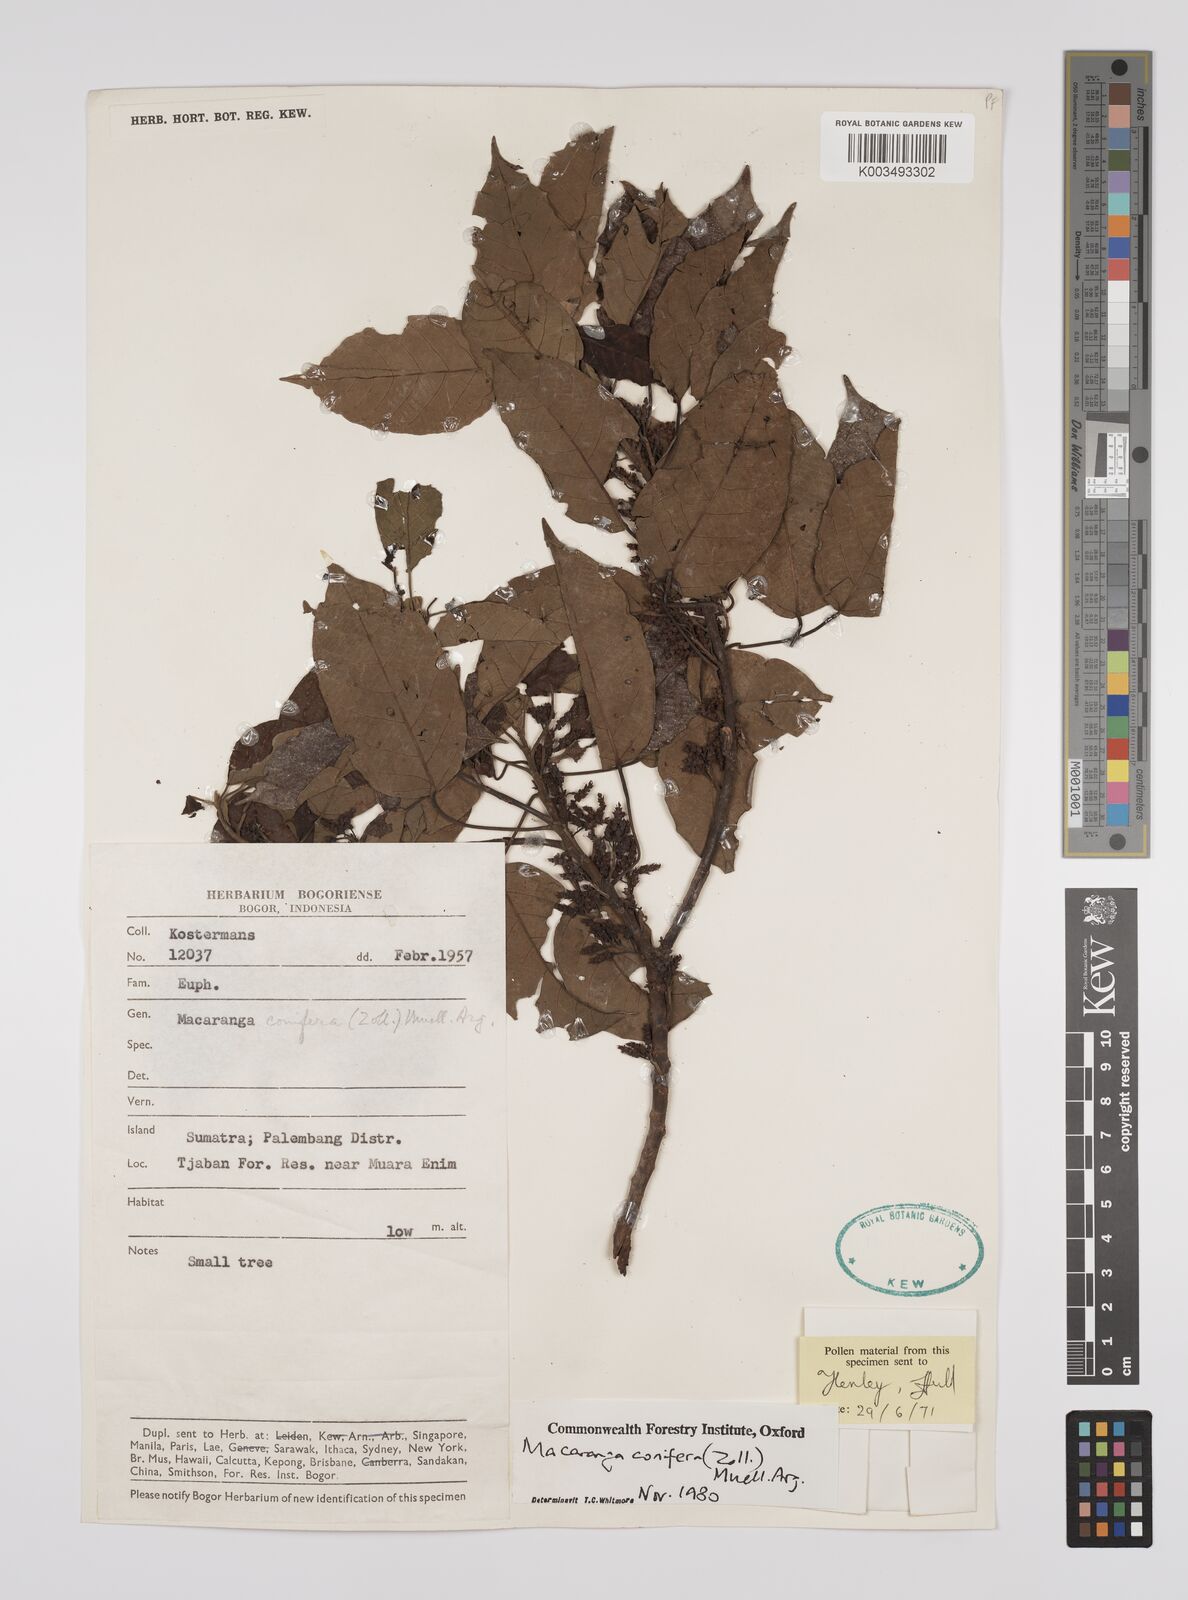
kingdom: Plantae
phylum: Tracheophyta
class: Magnoliopsida
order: Malpighiales
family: Euphorbiaceae
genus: Macaranga
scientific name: Macaranga conifera
